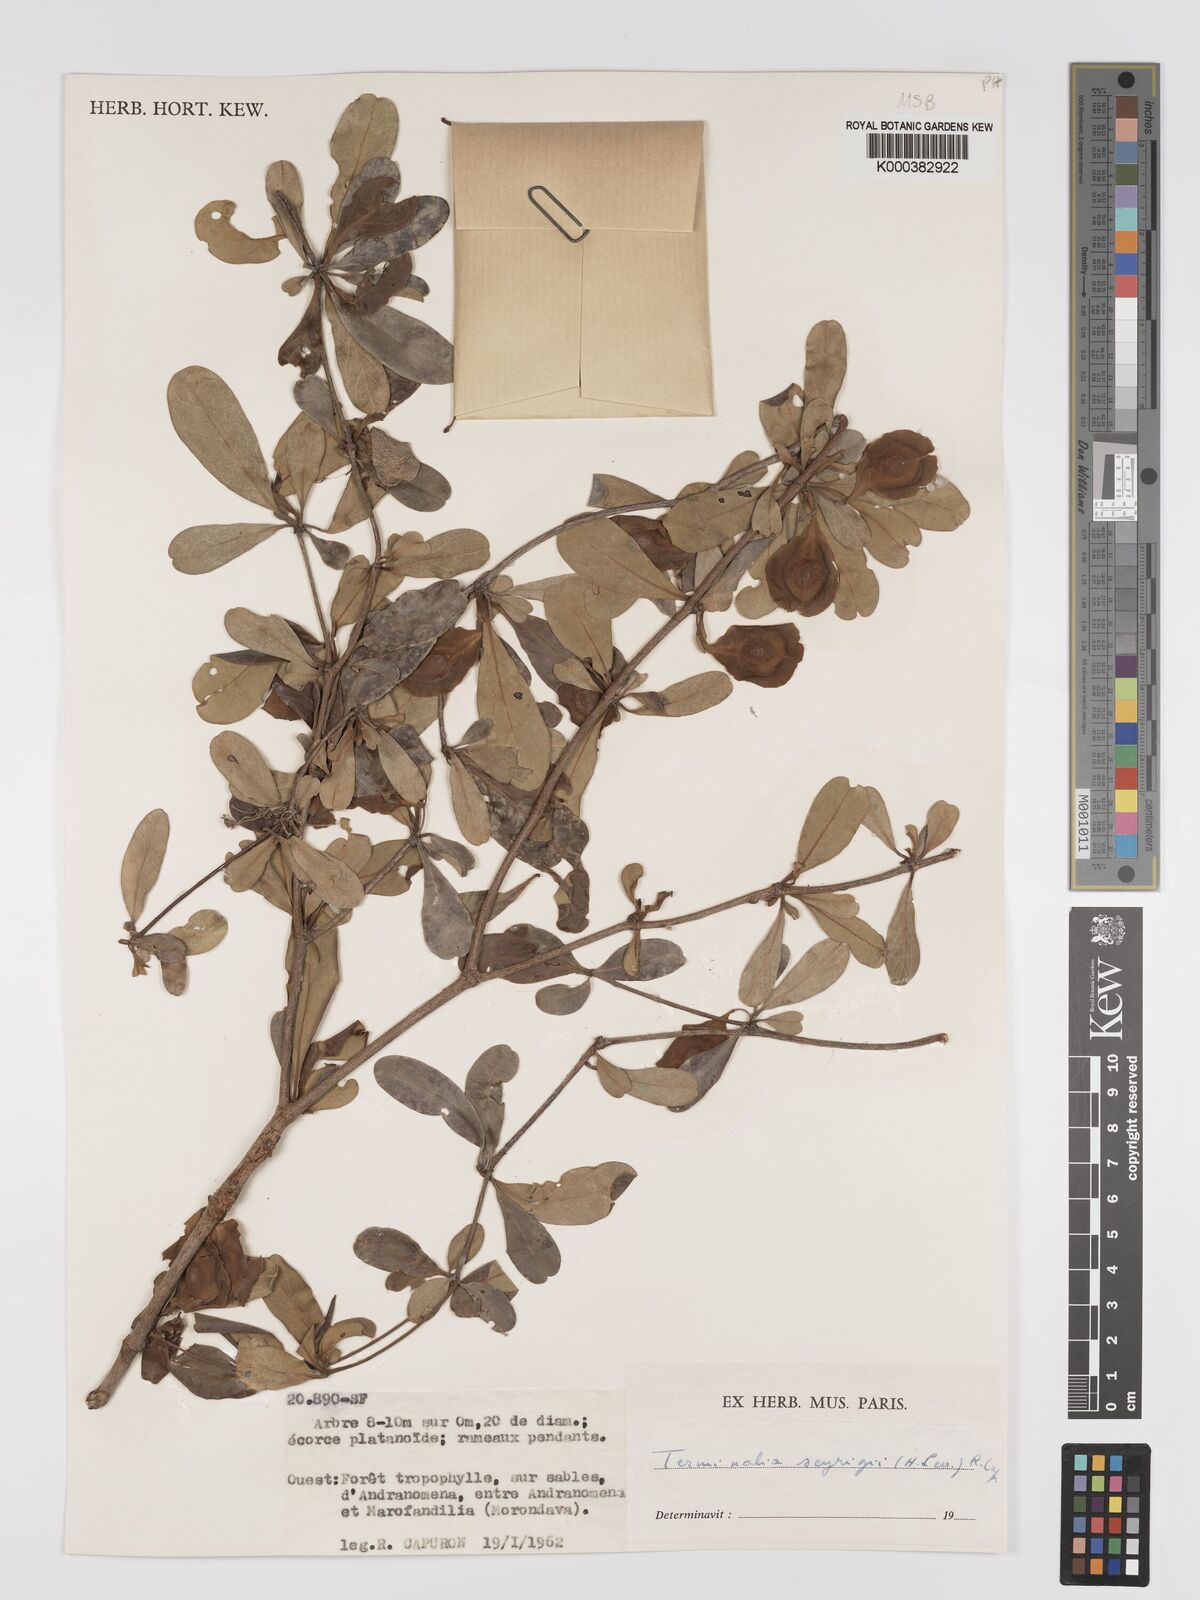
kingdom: Plantae
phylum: Tracheophyta
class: Magnoliopsida
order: Myrtales
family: Combretaceae
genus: Terminalia
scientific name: Terminalia seyrigii
